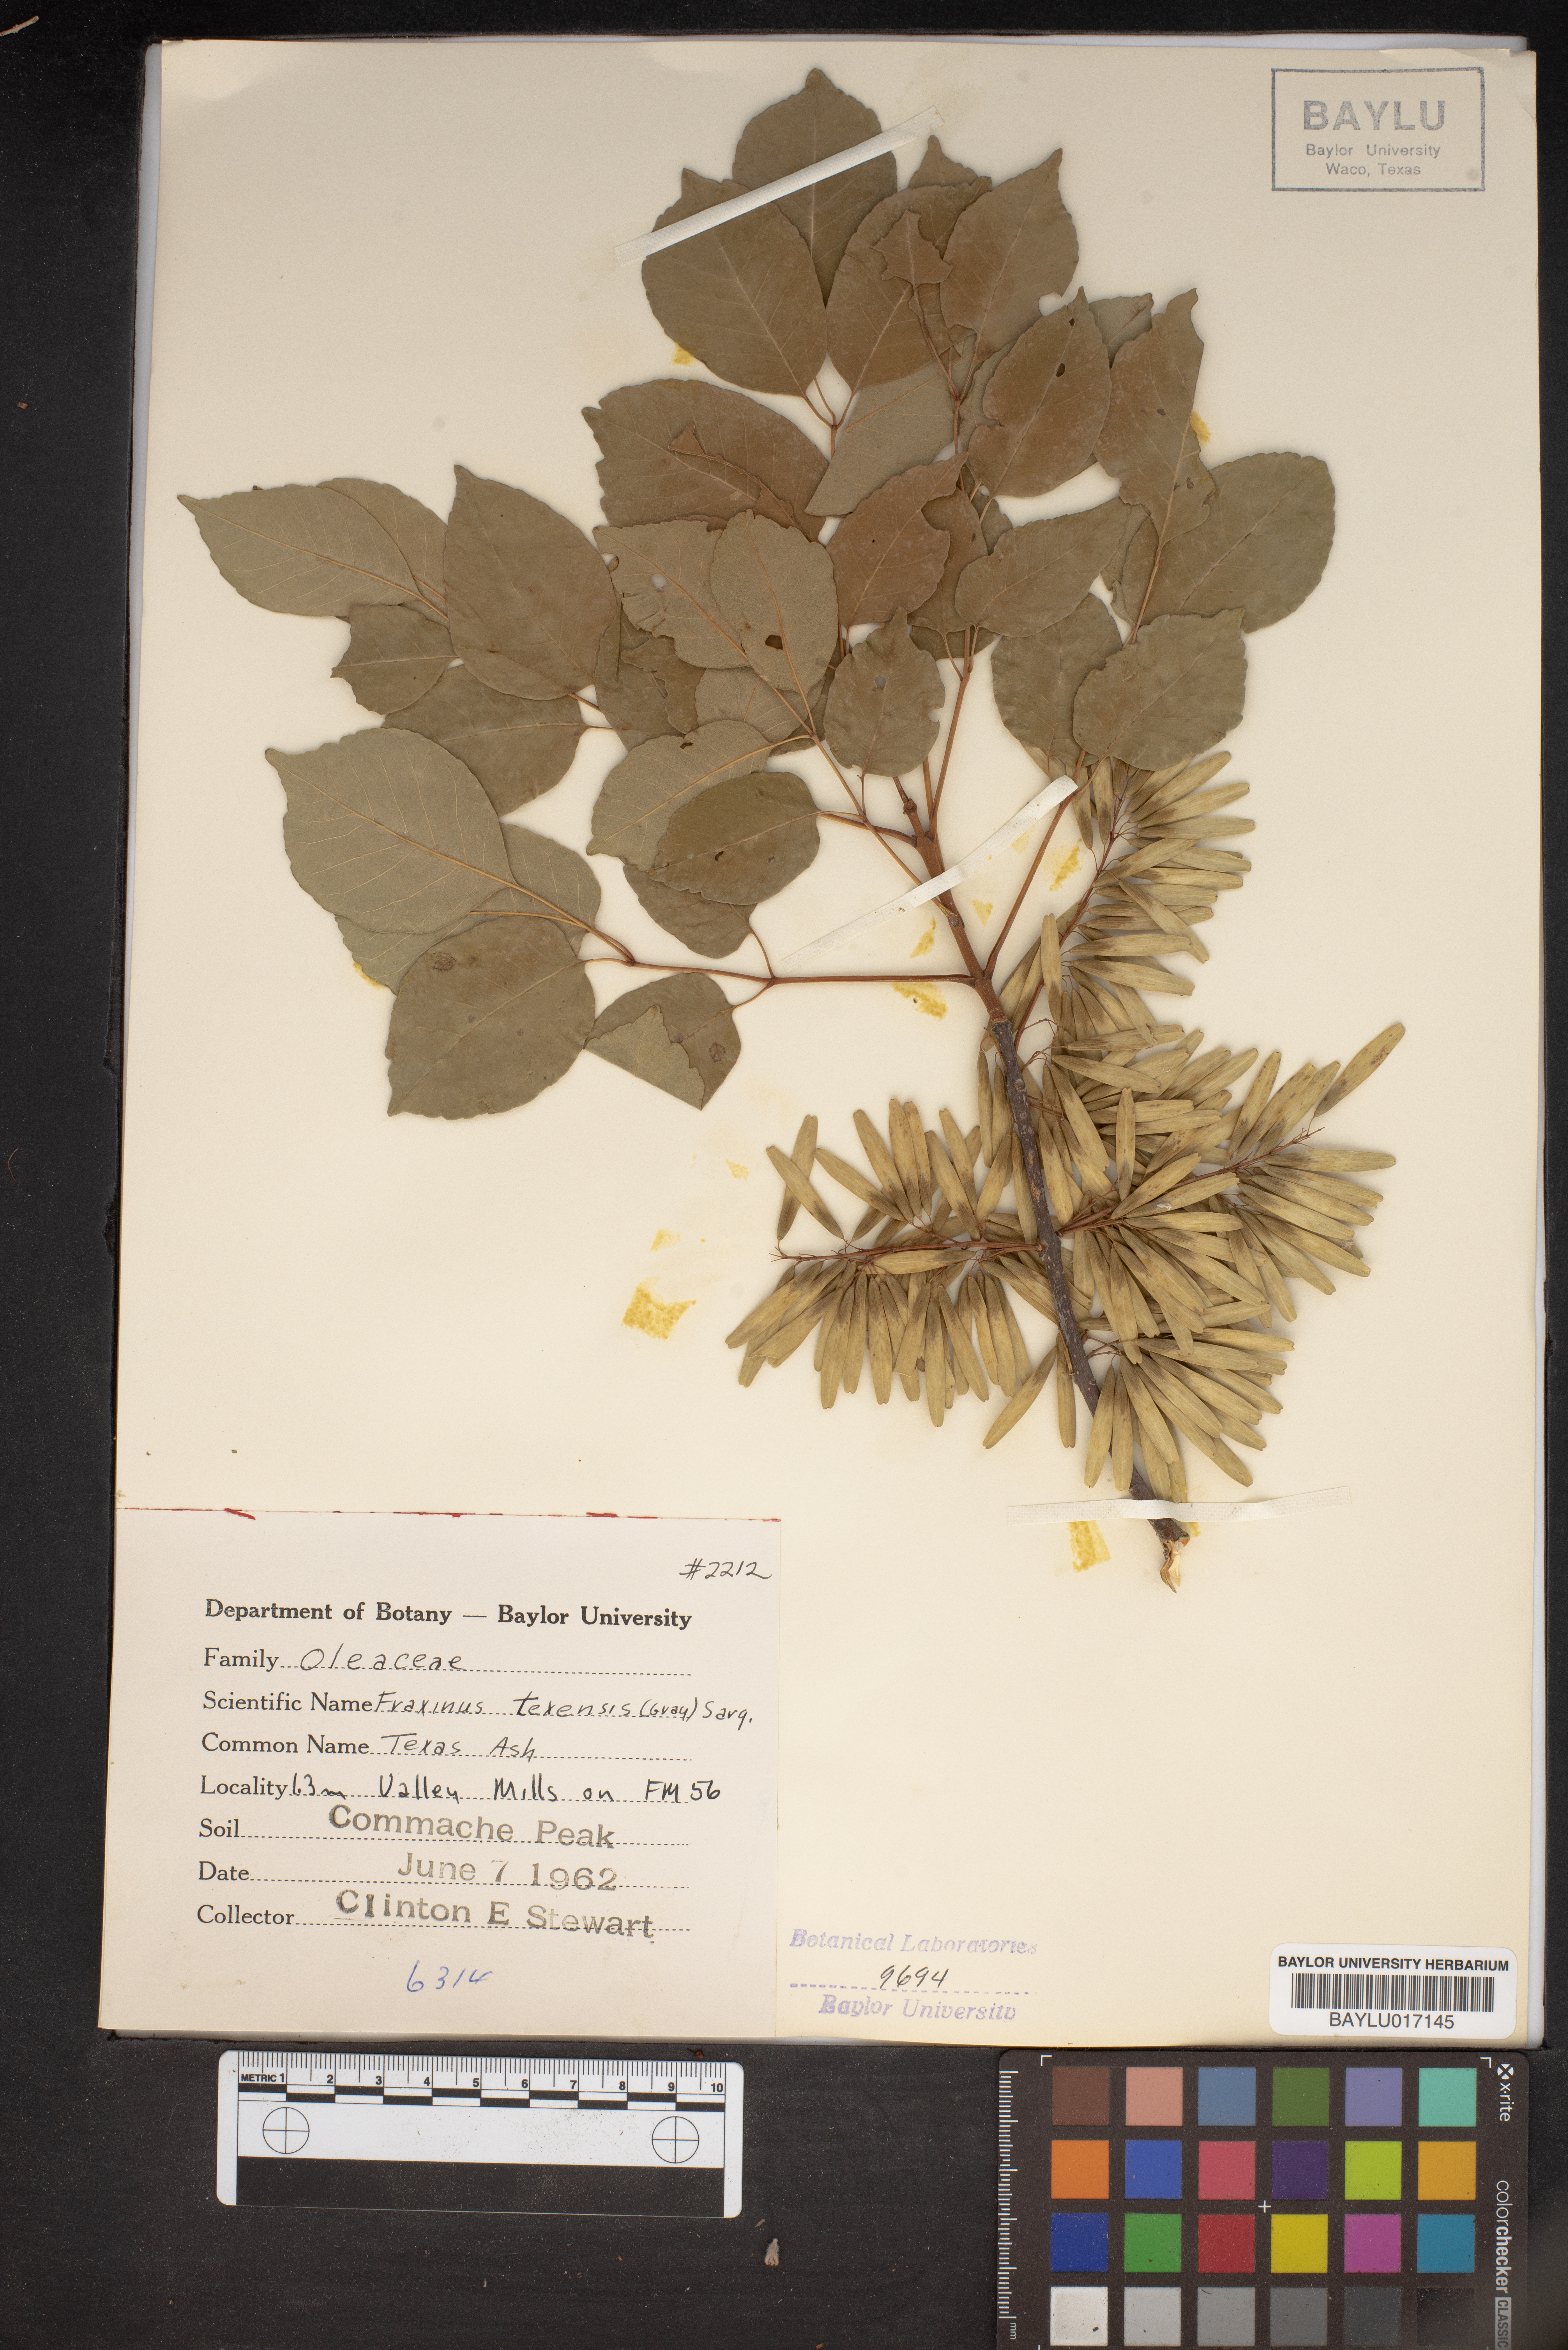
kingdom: Plantae
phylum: Tracheophyta
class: Magnoliopsida
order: Lamiales
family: Oleaceae
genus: Fraxinus
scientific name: Fraxinus albicans
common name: Texas ash
